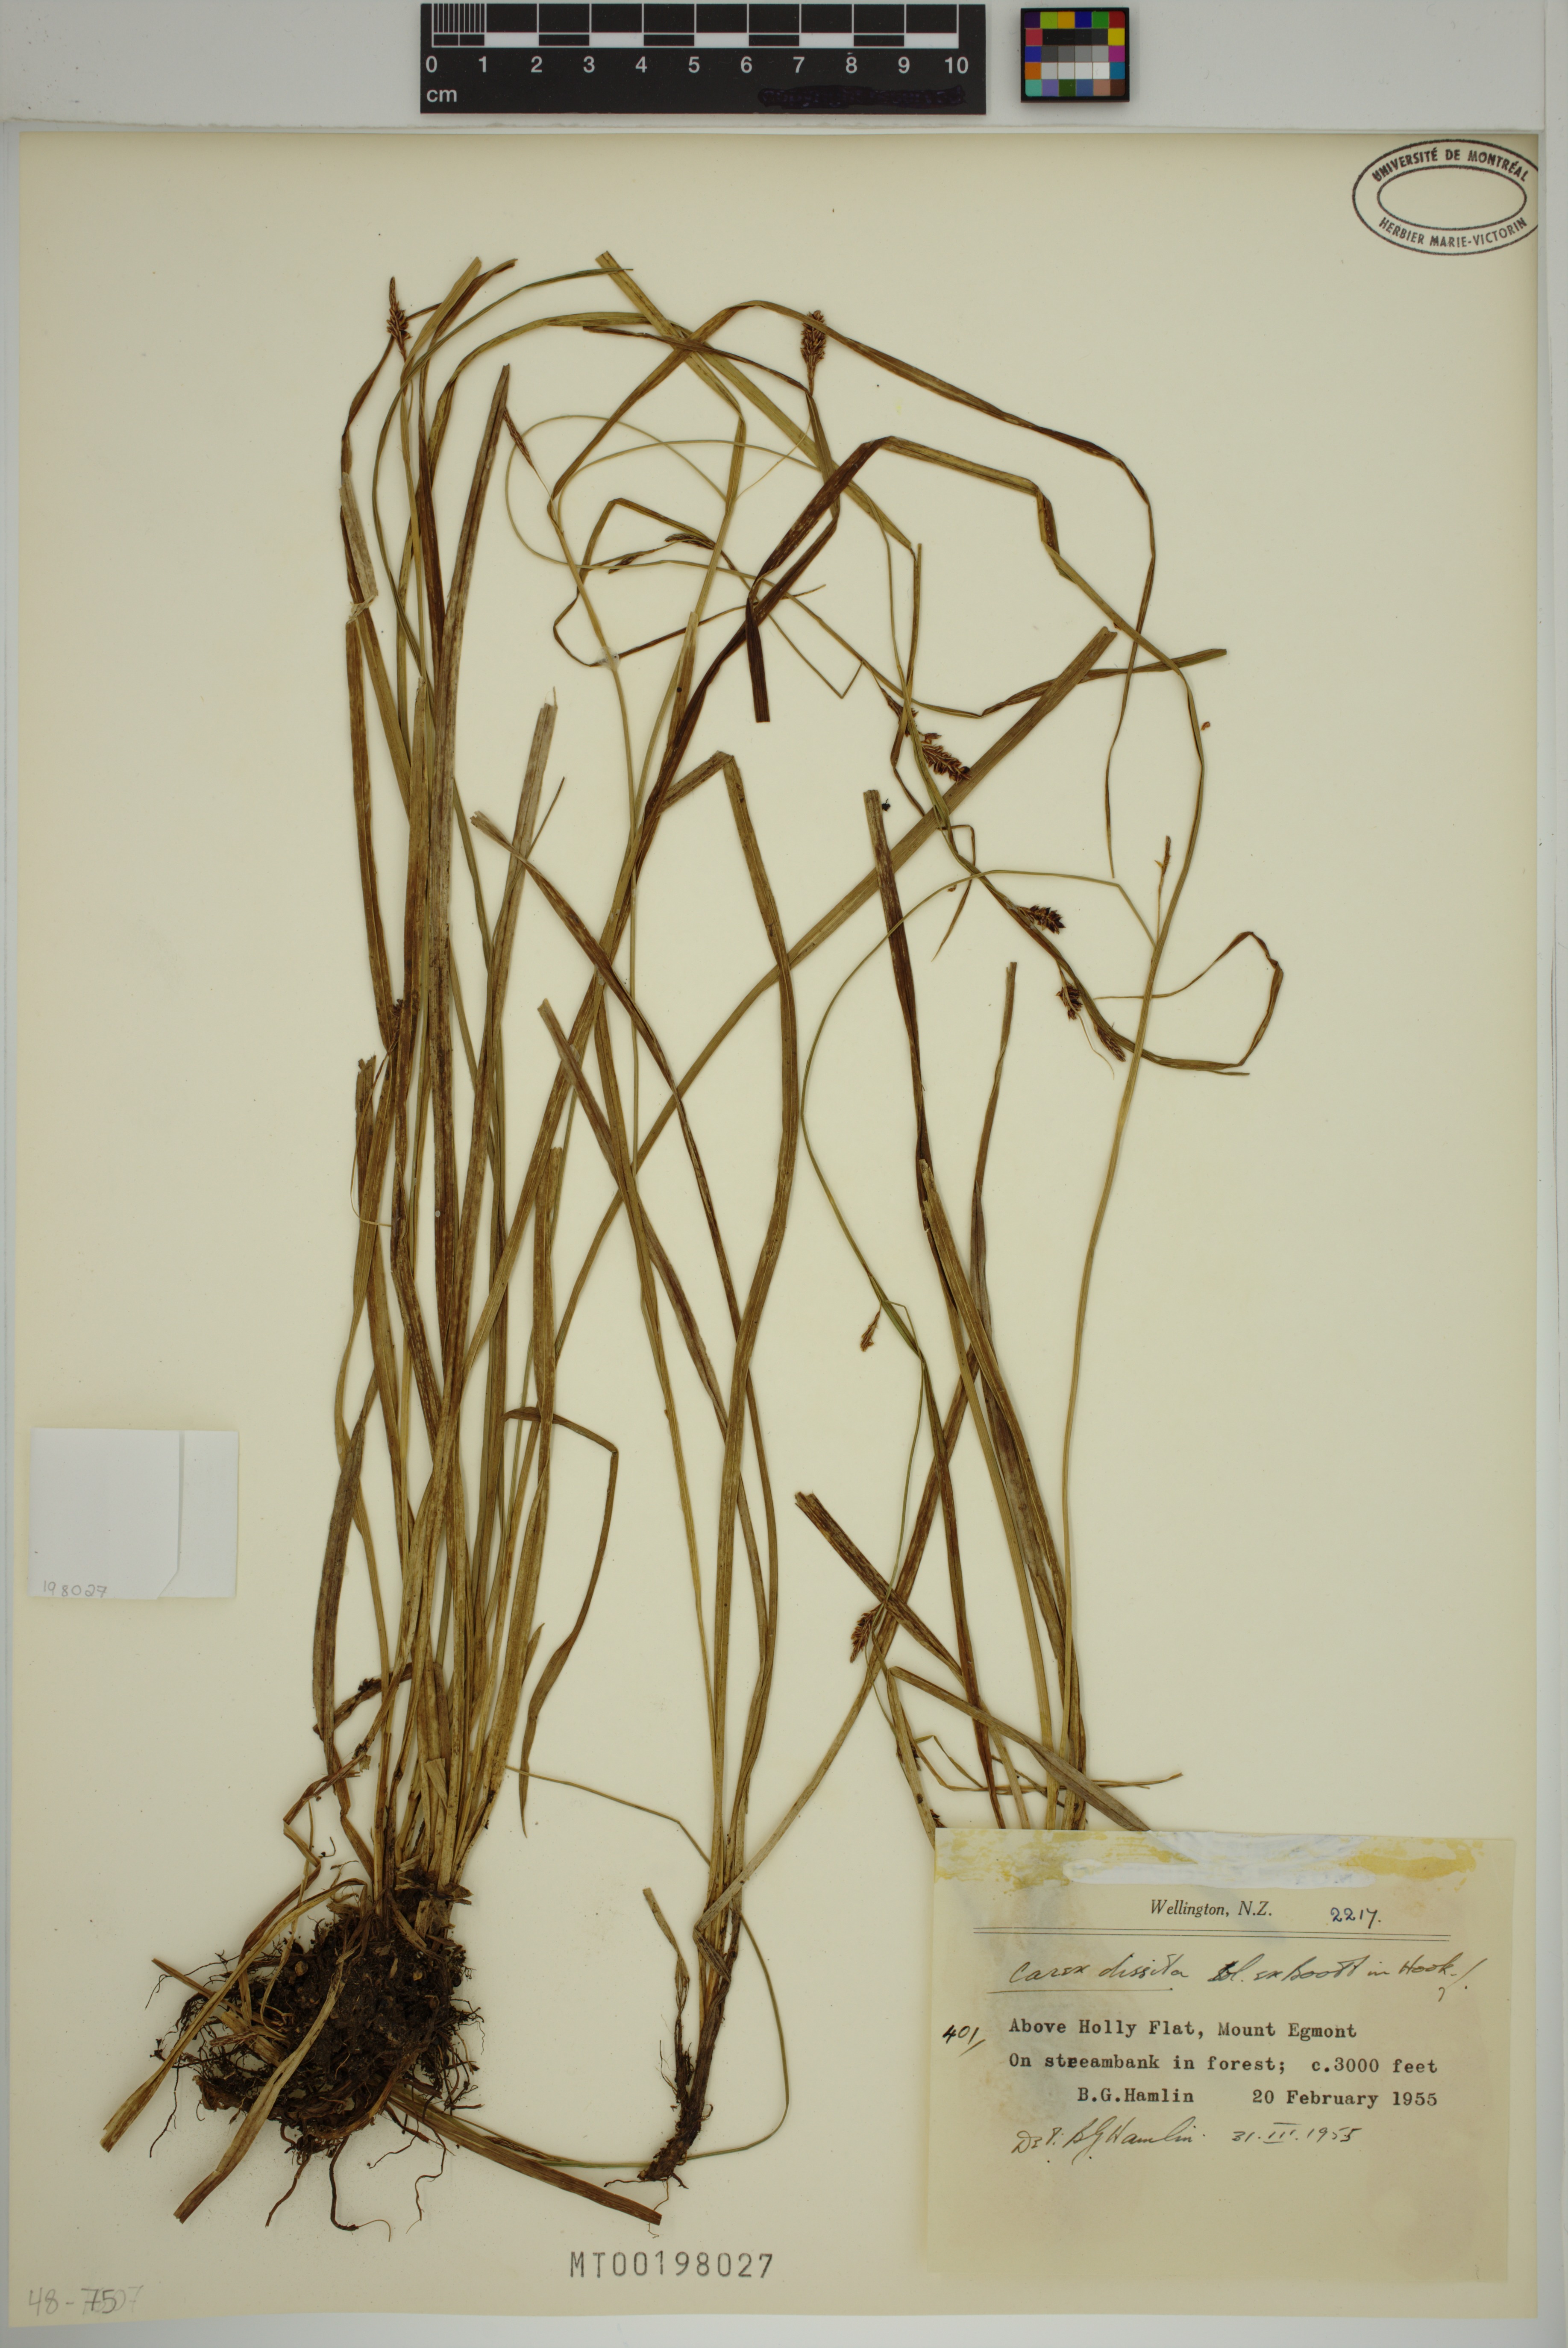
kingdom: Plantae
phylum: Tracheophyta
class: Liliopsida
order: Poales
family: Cyperaceae
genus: Carex
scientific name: Carex dissita
